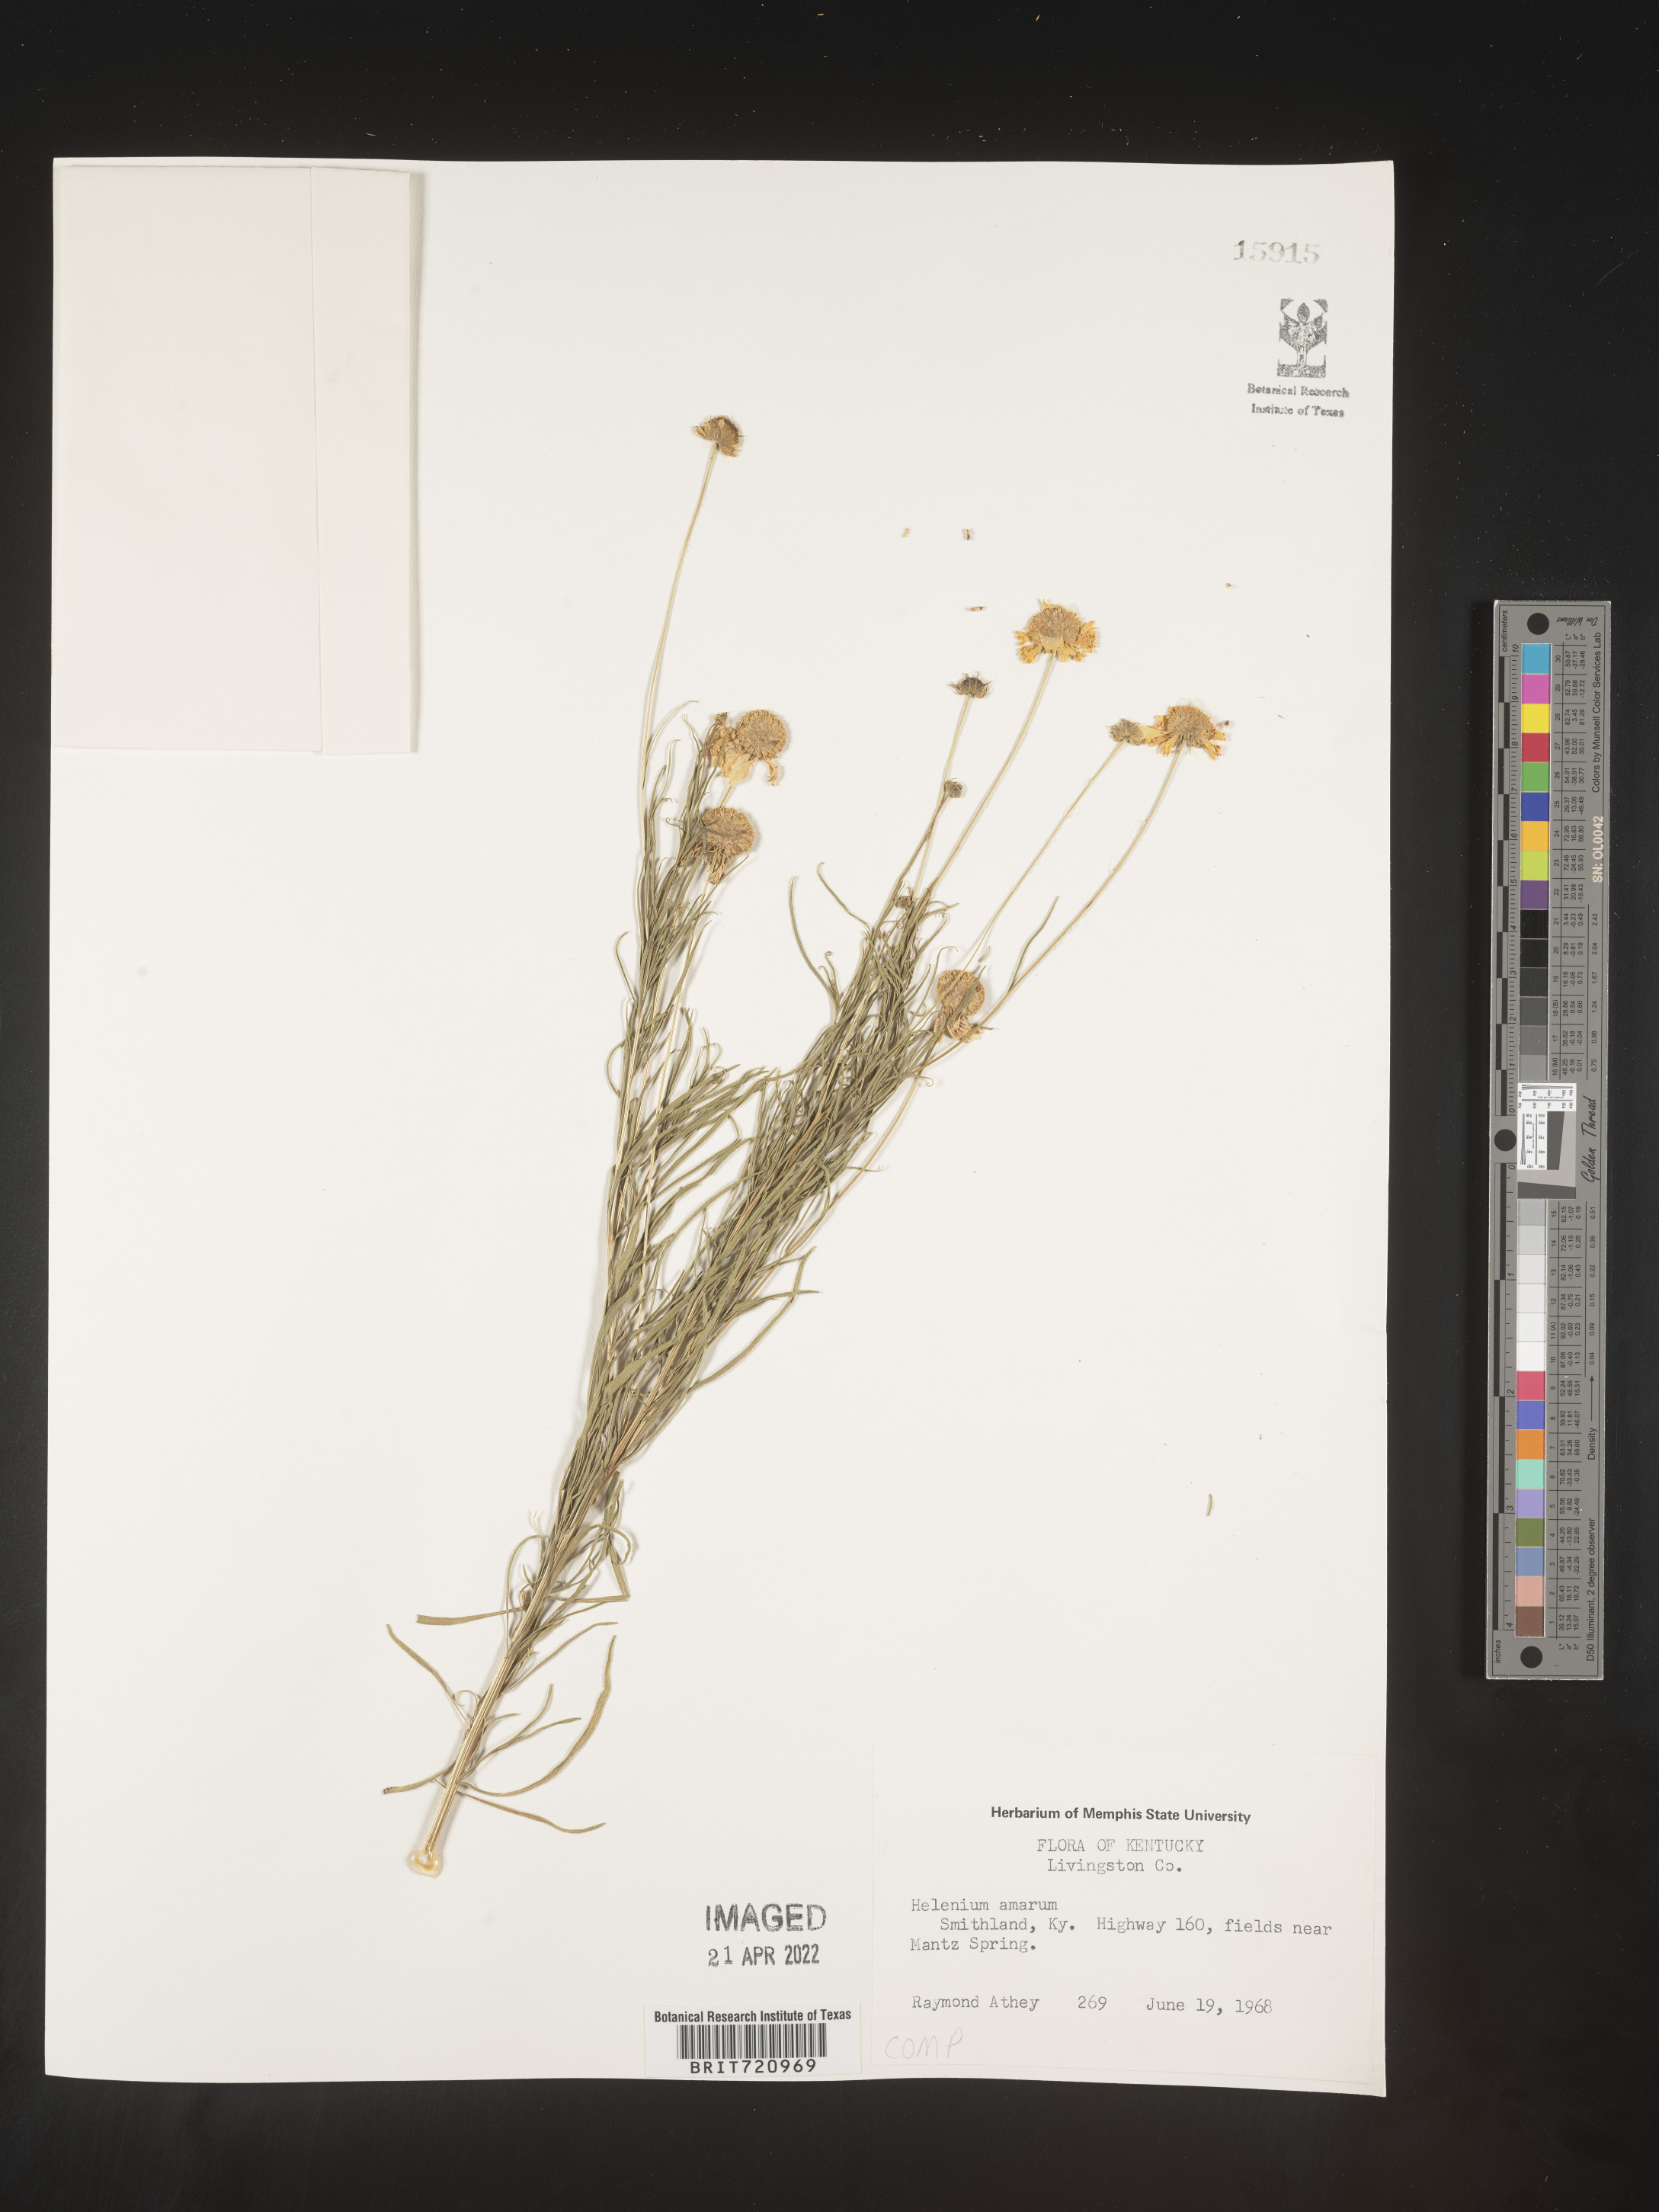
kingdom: Plantae
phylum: Tracheophyta
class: Magnoliopsida
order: Asterales
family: Asteraceae
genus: Helenium
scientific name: Helenium amarum
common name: Bitter sneezeweed
